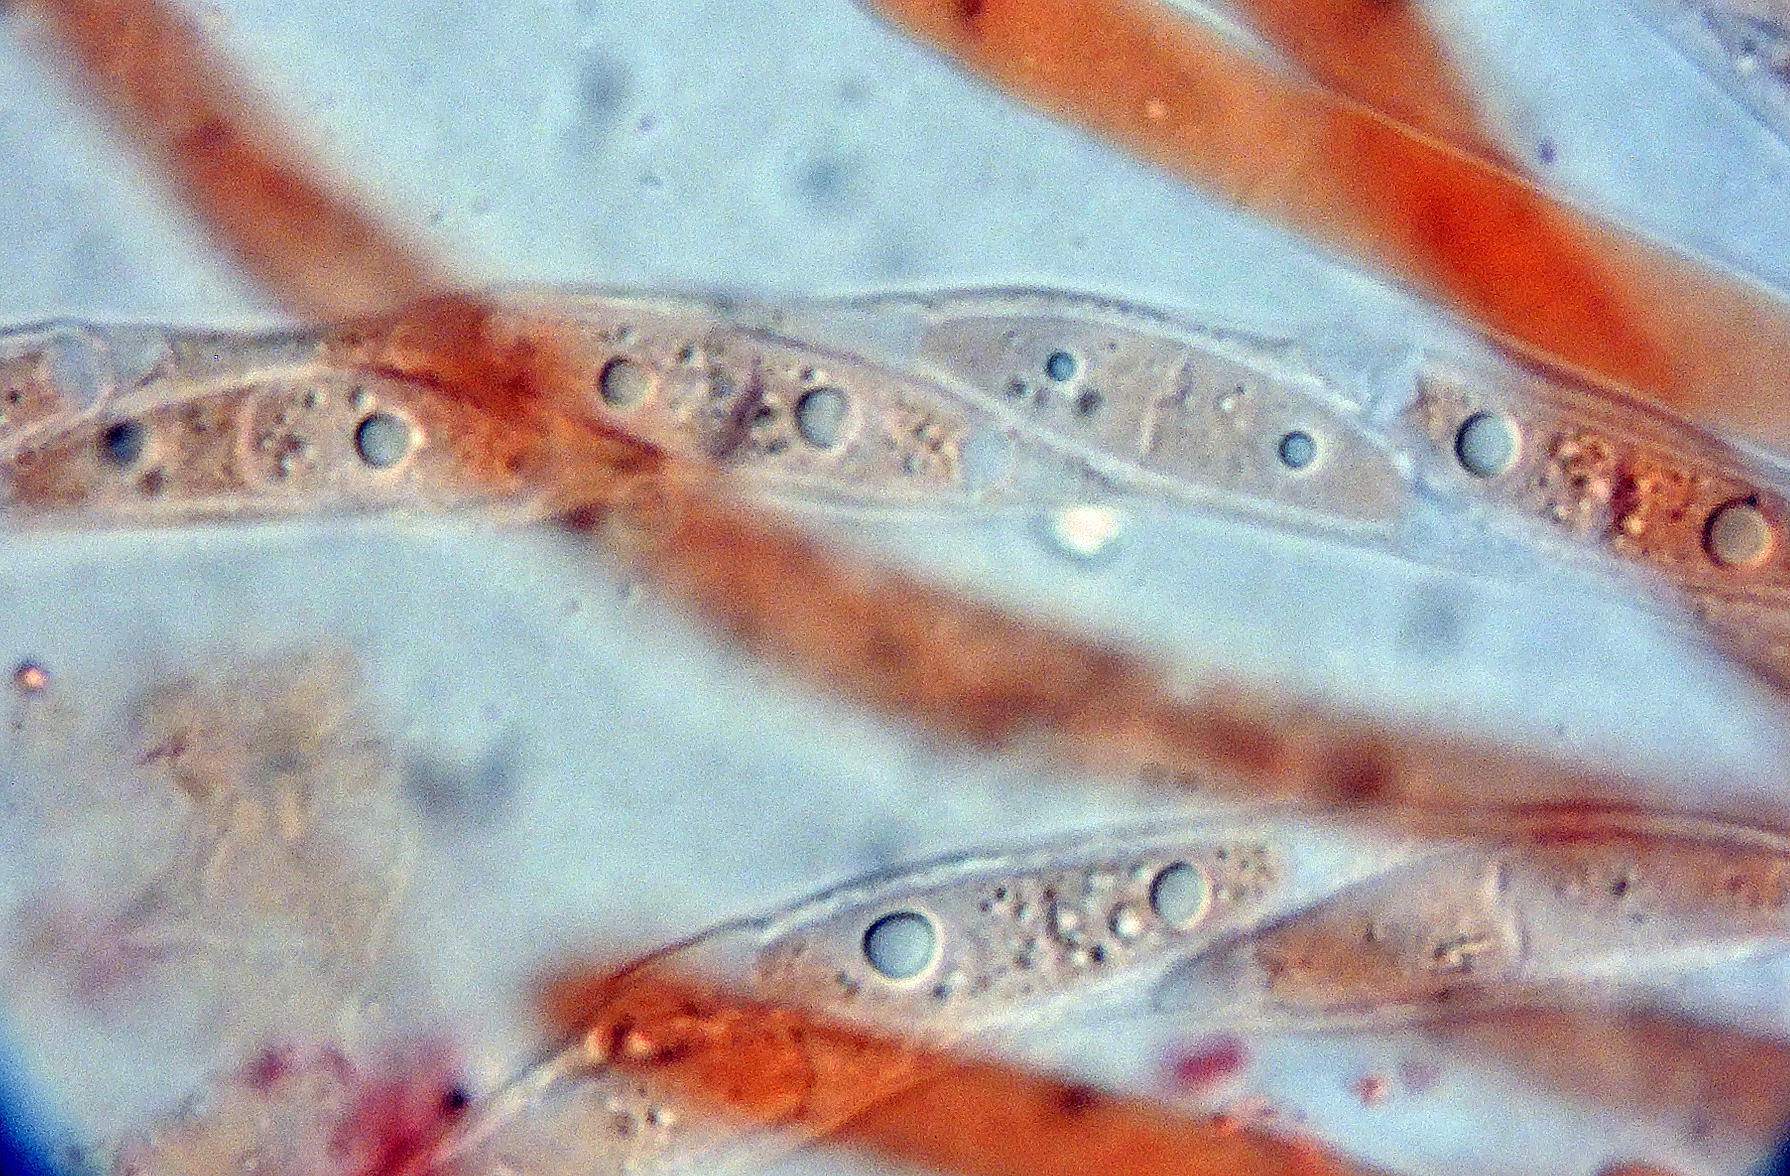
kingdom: Fungi
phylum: Ascomycota
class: Sordariomycetes
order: Hypocreales
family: Hypocreaceae
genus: Hypomyces
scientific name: Hypomyces ochraceus
